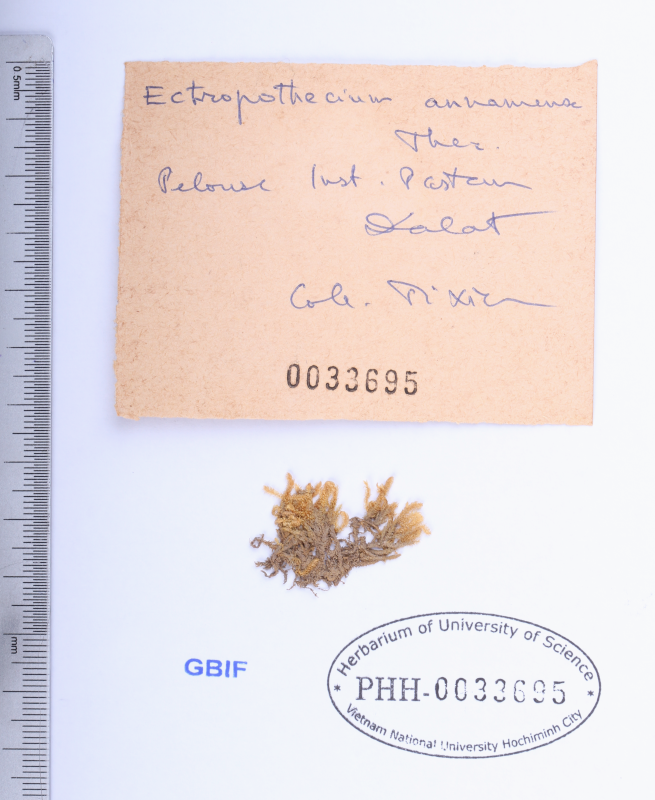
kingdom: Plantae
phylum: Bryophyta
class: Bryopsida
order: Hypnales
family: Hypnaceae
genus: Ectropothecium
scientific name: Ectropothecium annamense
